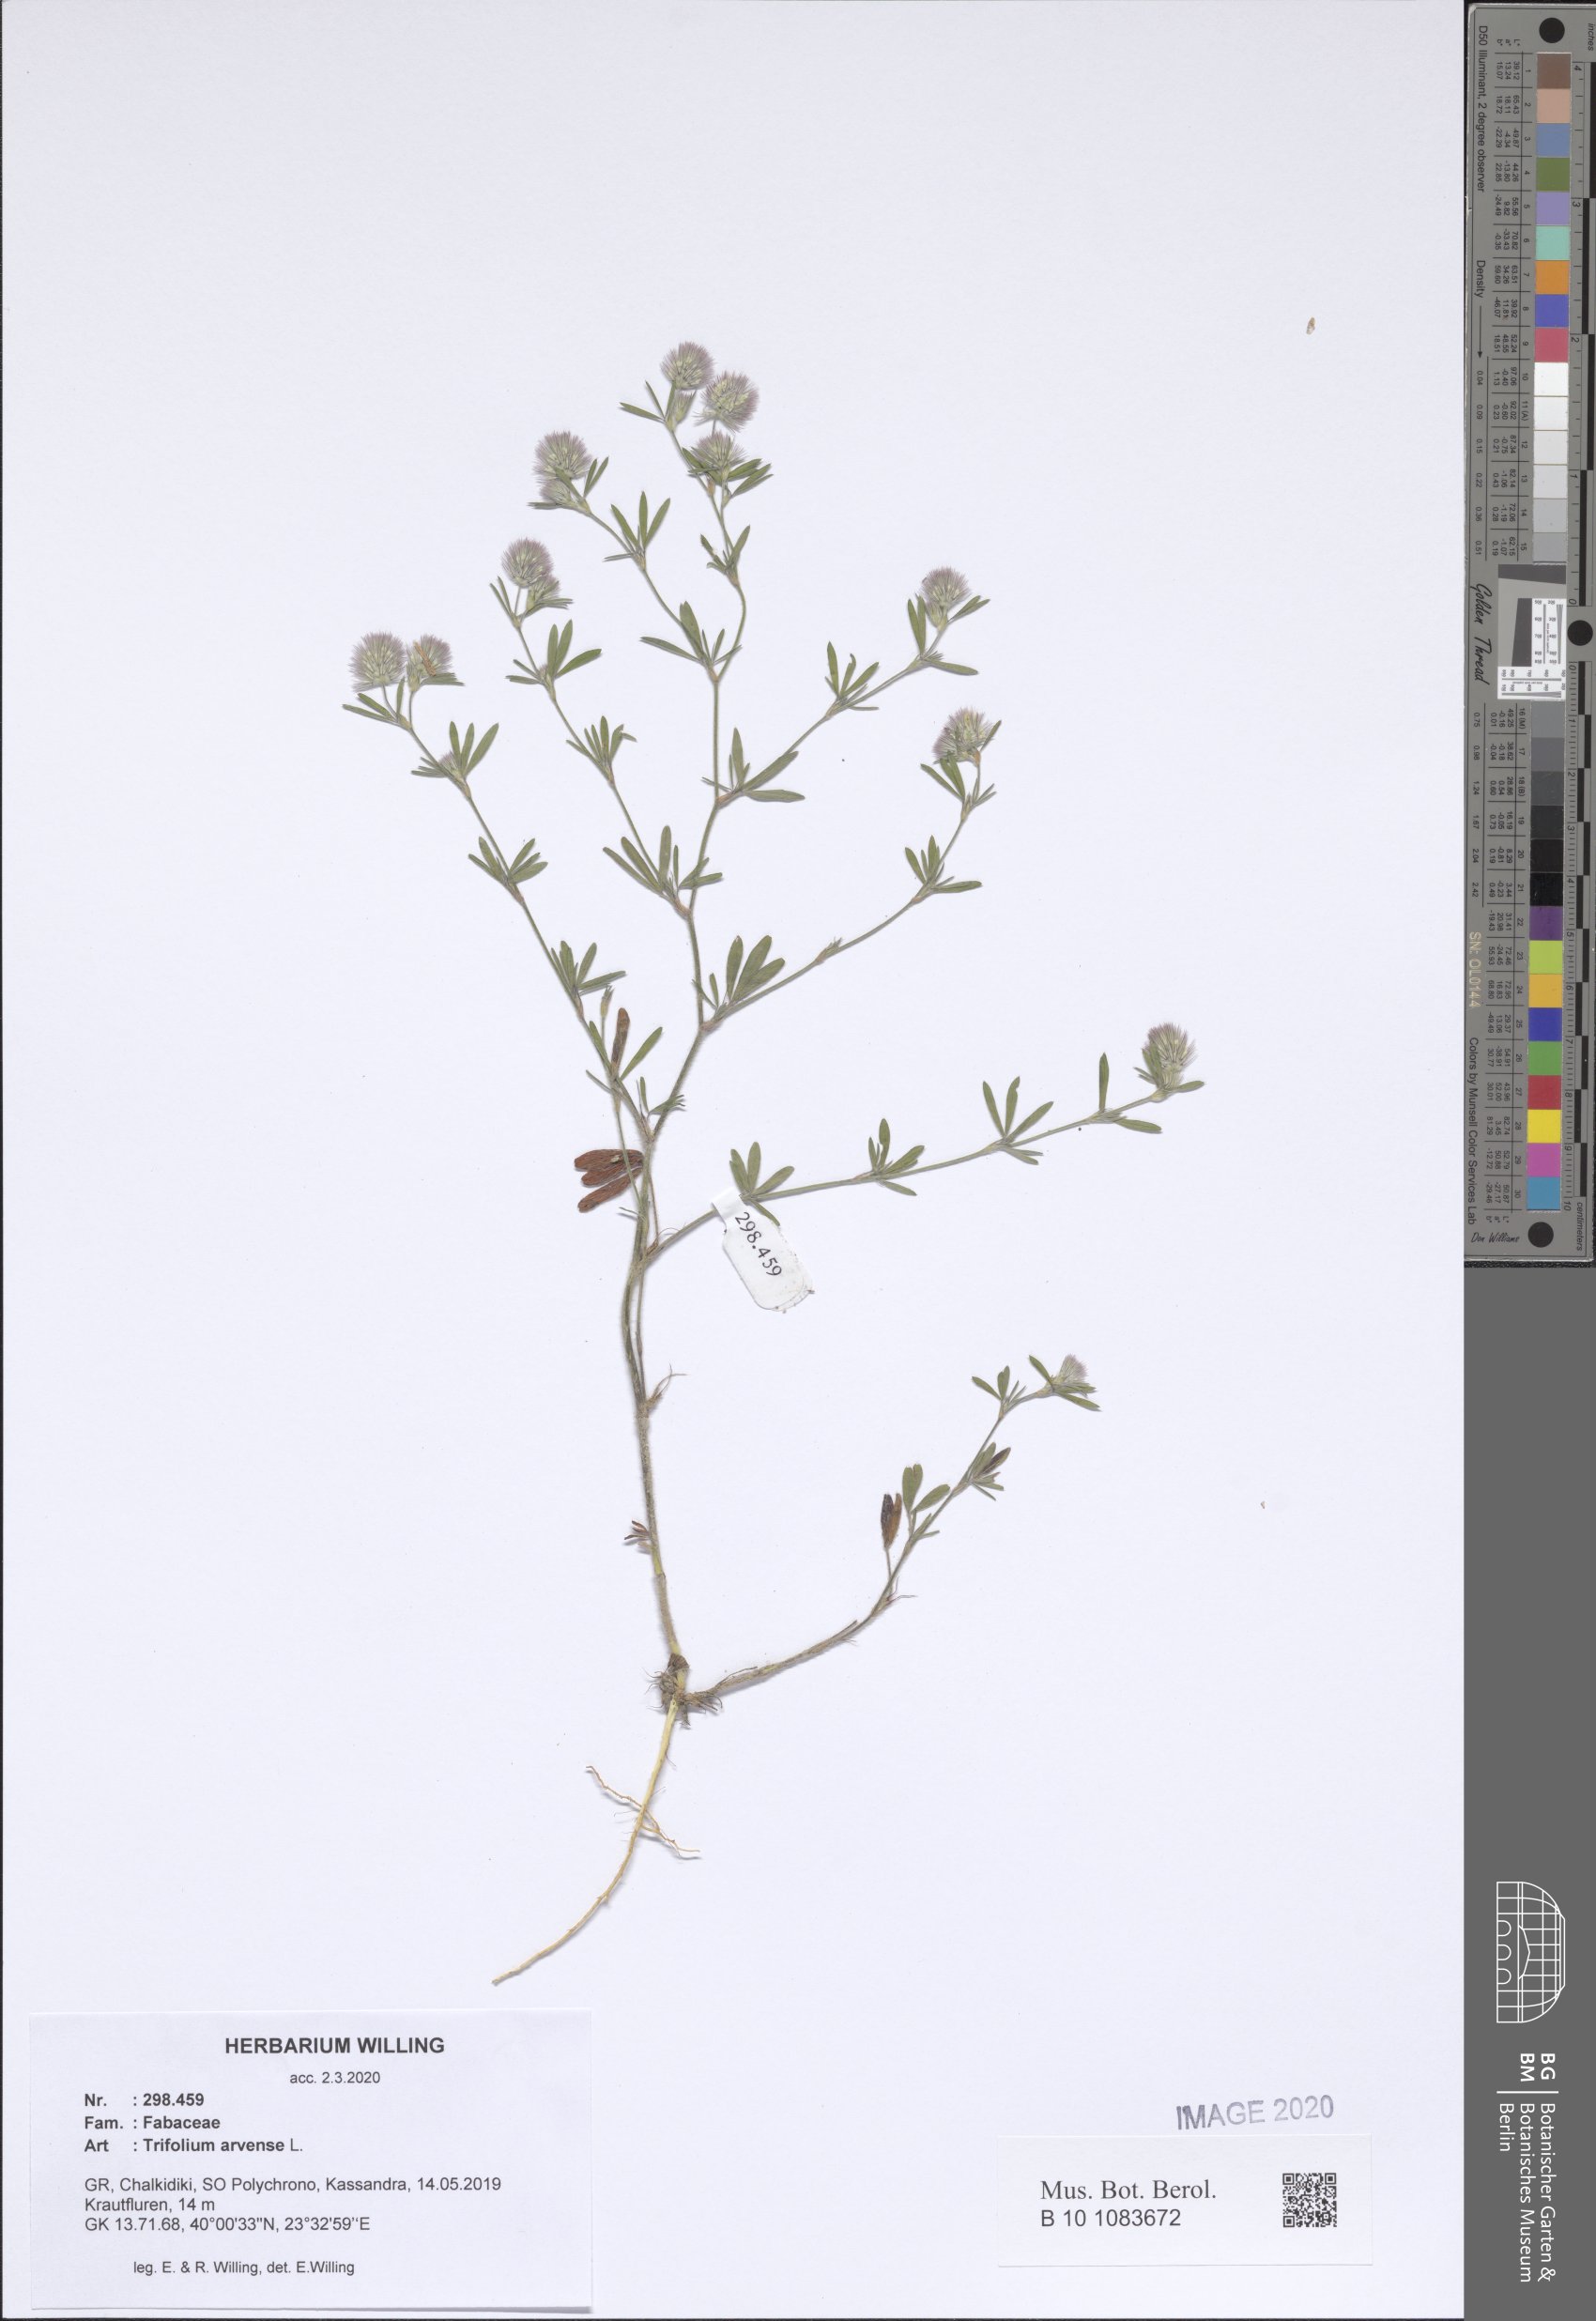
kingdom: Plantae
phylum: Tracheophyta
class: Magnoliopsida
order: Fabales
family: Fabaceae
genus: Trifolium
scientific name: Trifolium arvense
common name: Hare's-foot clover
